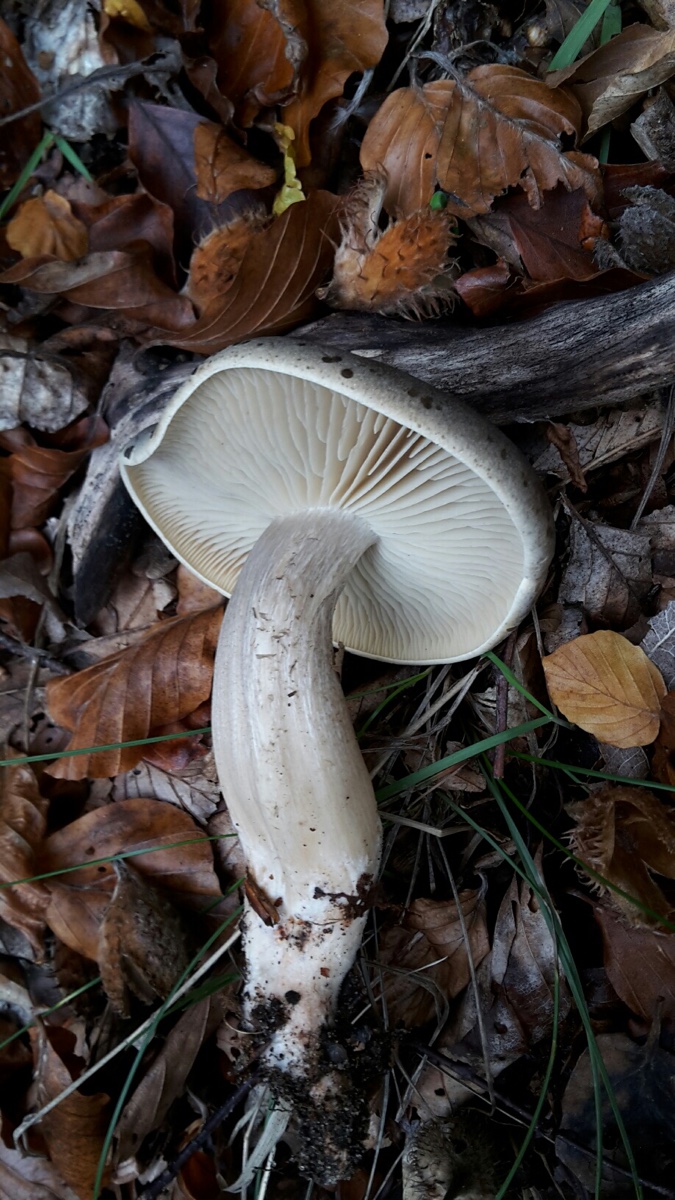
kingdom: Fungi
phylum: Basidiomycota
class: Agaricomycetes
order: Agaricales
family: Tricholomataceae
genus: Tricholoma
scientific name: Tricholoma saponaceum
